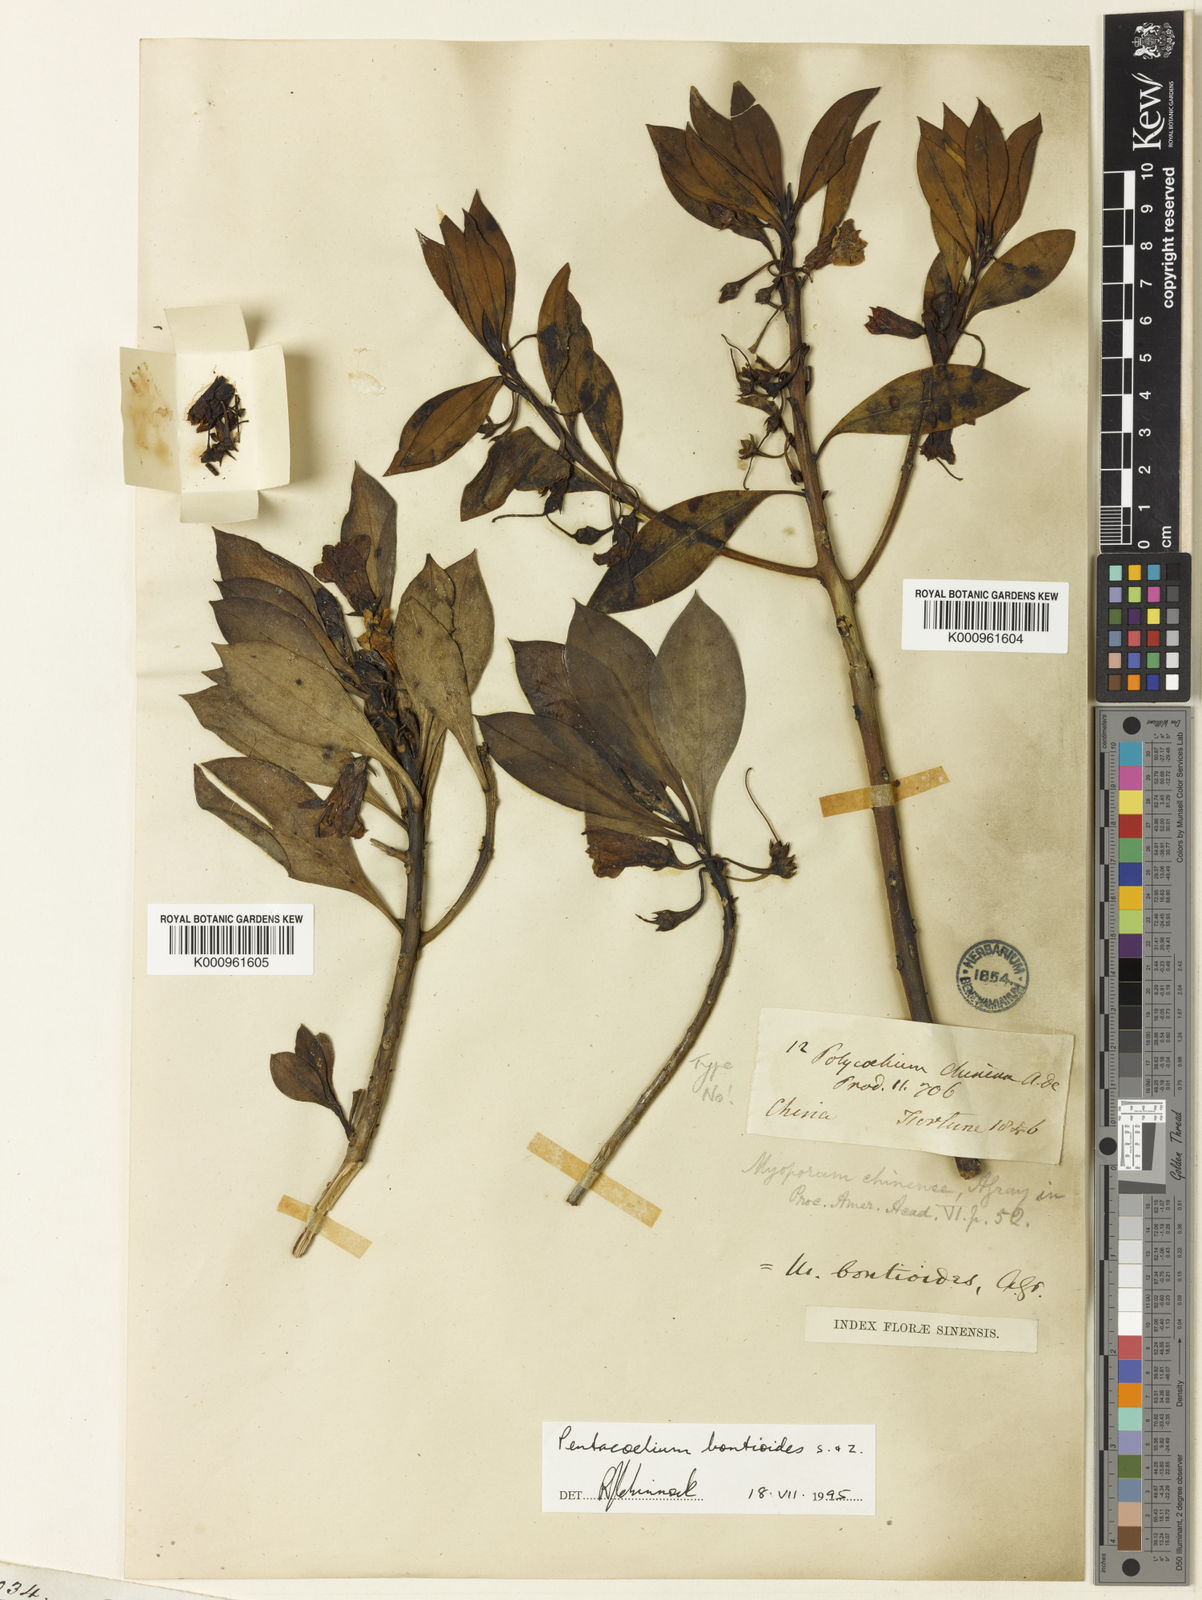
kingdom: Plantae
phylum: Tracheophyta
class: Magnoliopsida
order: Lamiales
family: Scrophulariaceae
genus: Myoporum
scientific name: Myoporum bontioides
